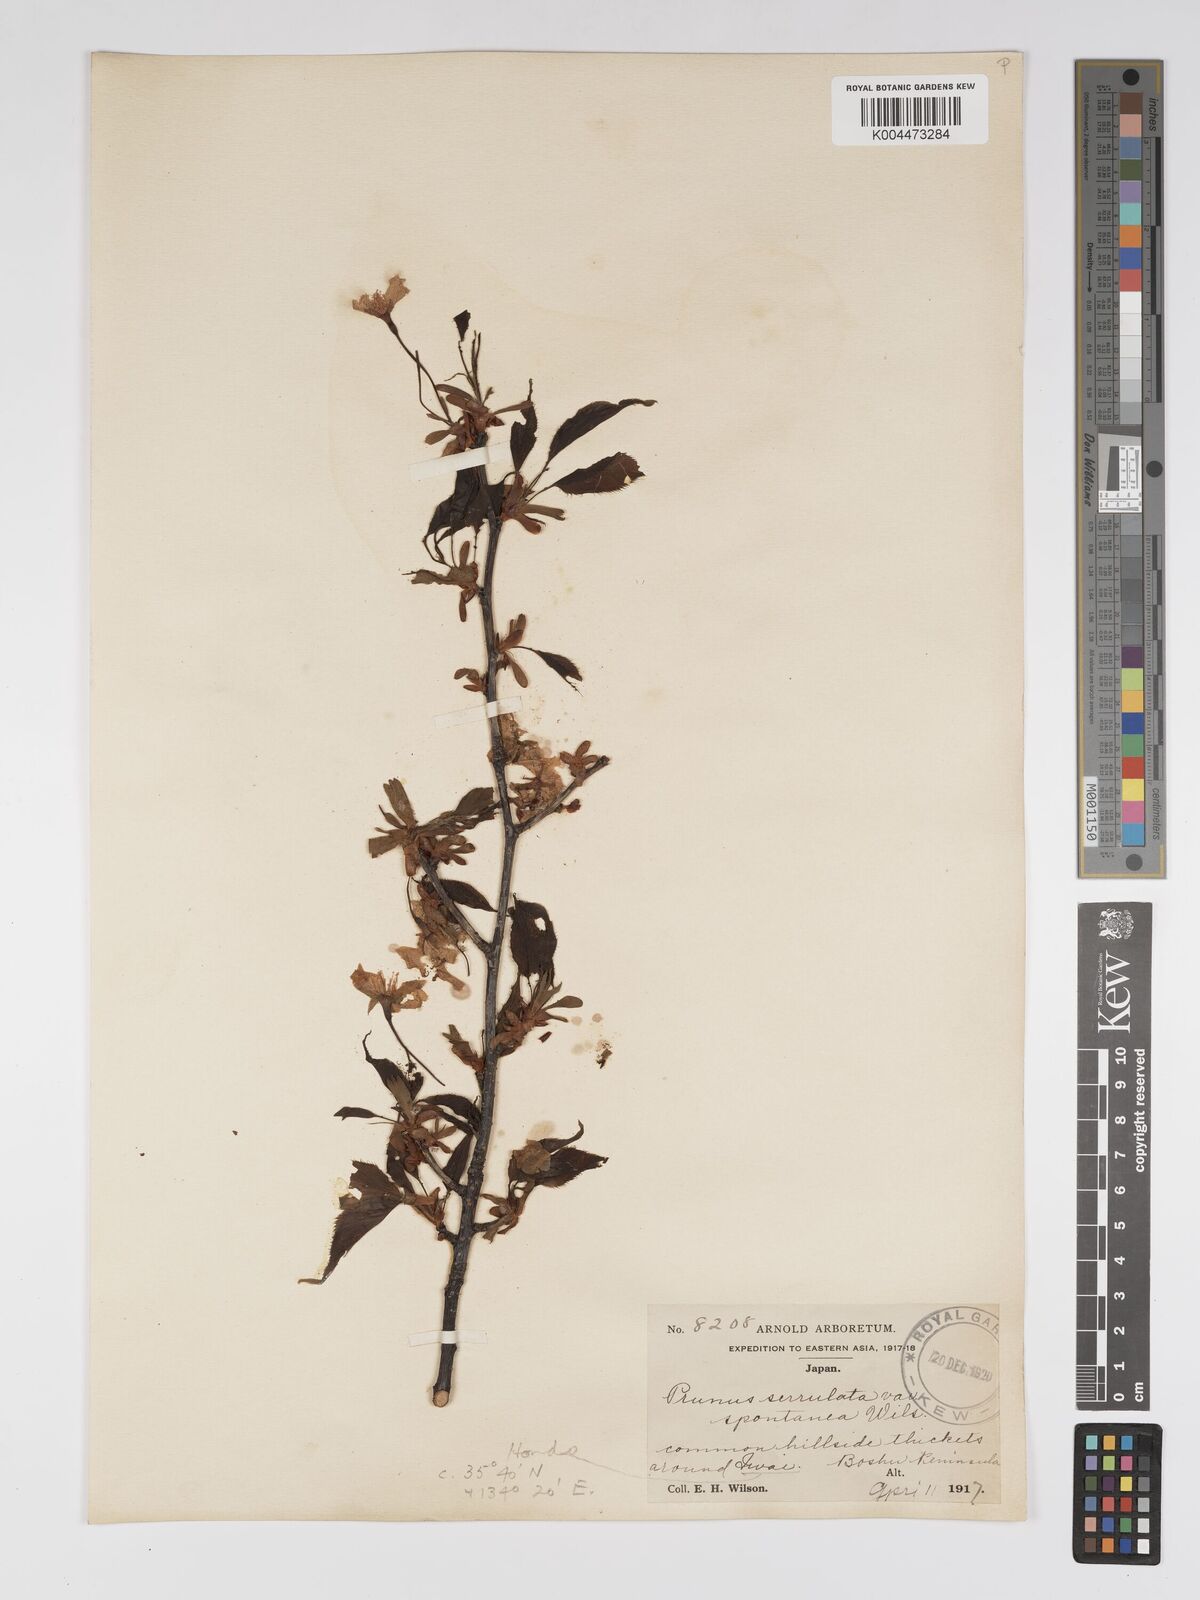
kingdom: Plantae
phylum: Tracheophyta
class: Magnoliopsida
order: Rosales
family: Rosaceae
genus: Prunus
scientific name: Prunus serrulata
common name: Japanese cherry
